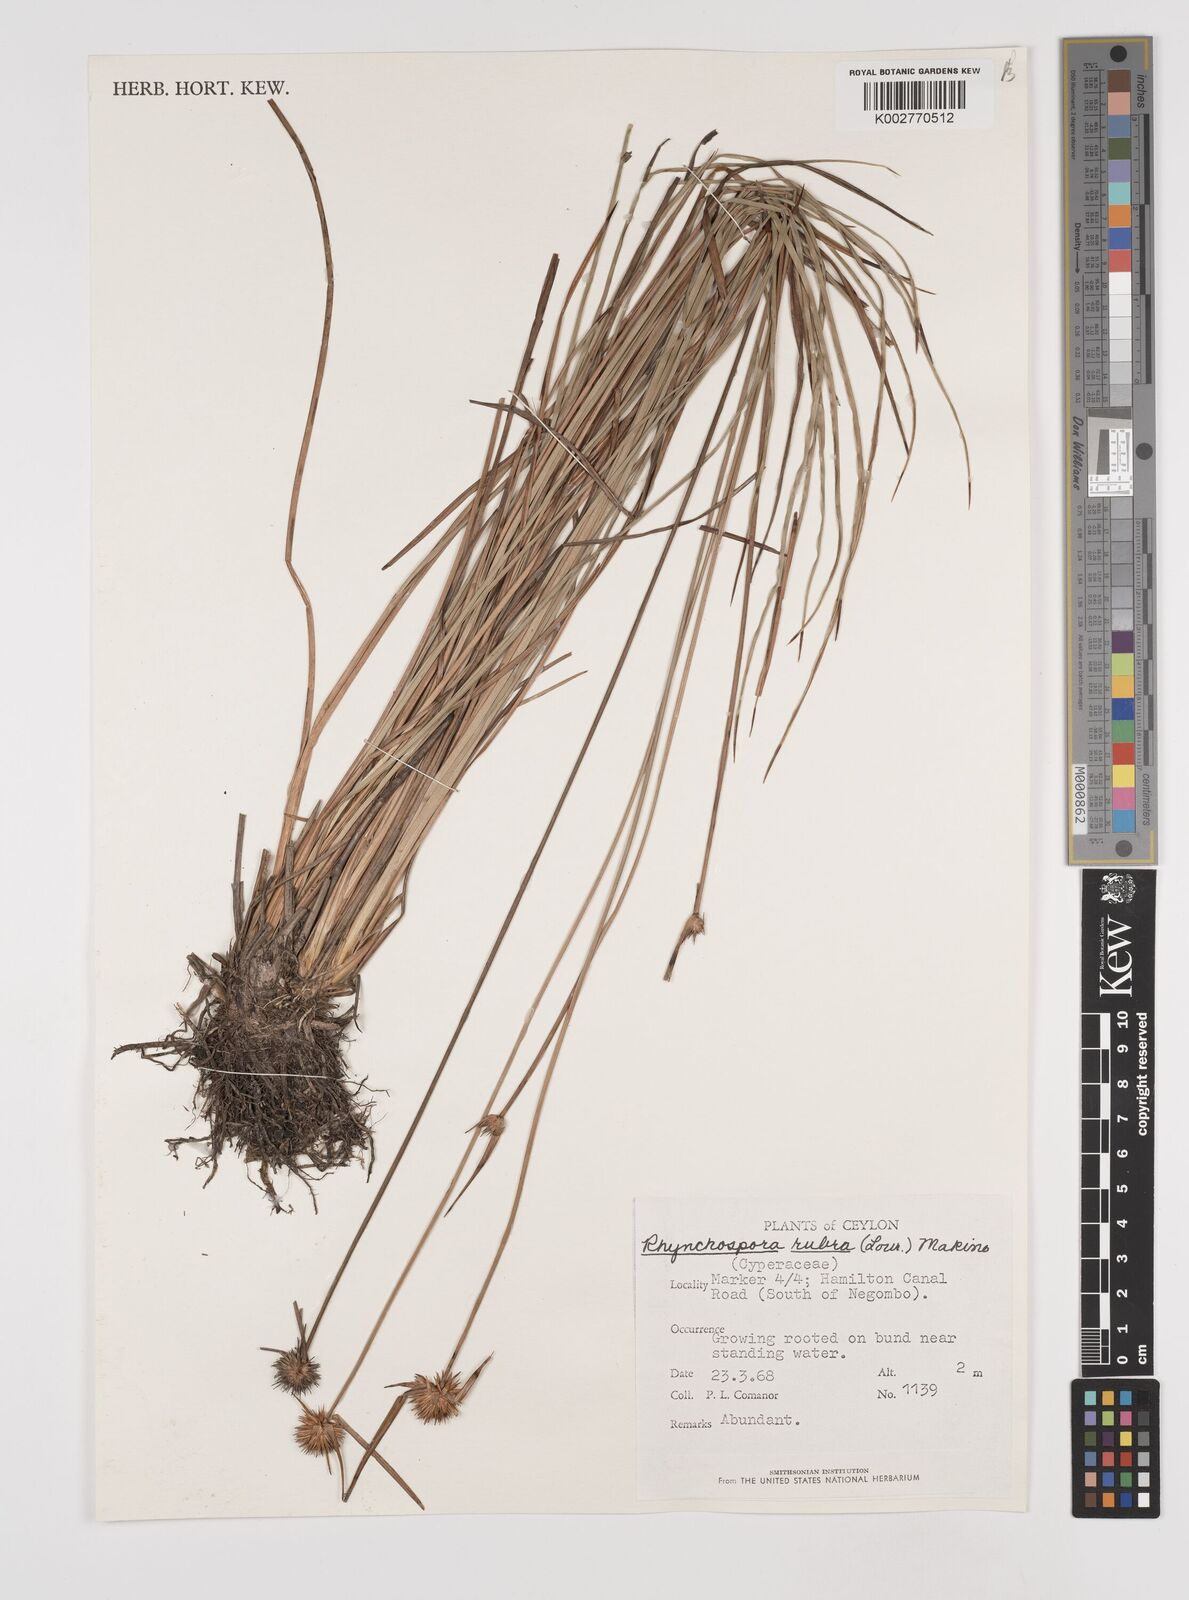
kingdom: Plantae
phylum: Tracheophyta
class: Liliopsida
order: Poales
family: Cyperaceae
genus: Rhynchospora
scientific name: Rhynchospora rubra
